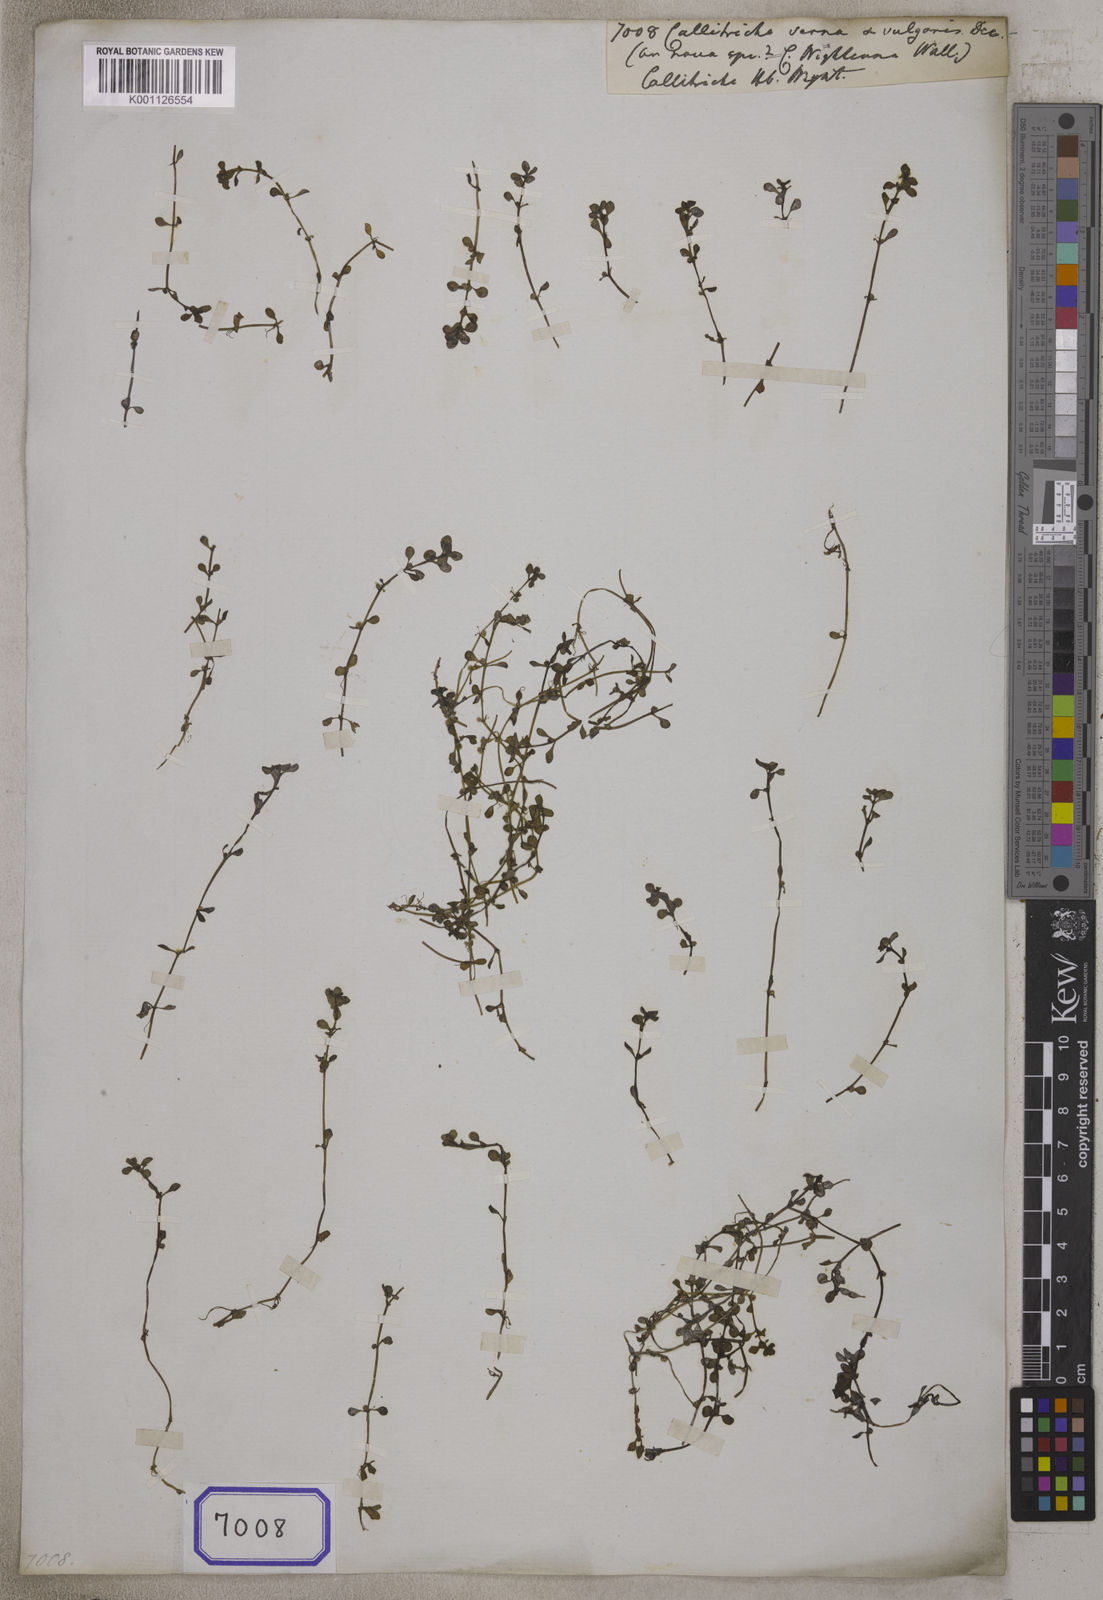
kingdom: Plantae
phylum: Tracheophyta
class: Magnoliopsida
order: Lamiales
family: Plantaginaceae
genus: Callitriche
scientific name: Callitriche palustris
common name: Spring water-starwort
